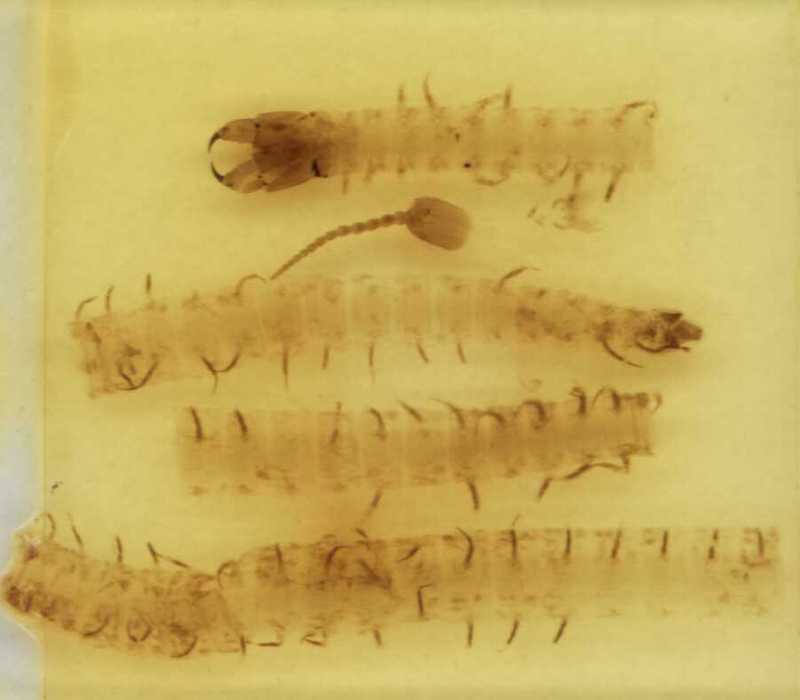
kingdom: Animalia
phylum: Arthropoda
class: Chilopoda
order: Geophilomorpha
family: Geophilidae
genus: Pachymerium
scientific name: Pachymerium ferrugineum
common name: Centipede
